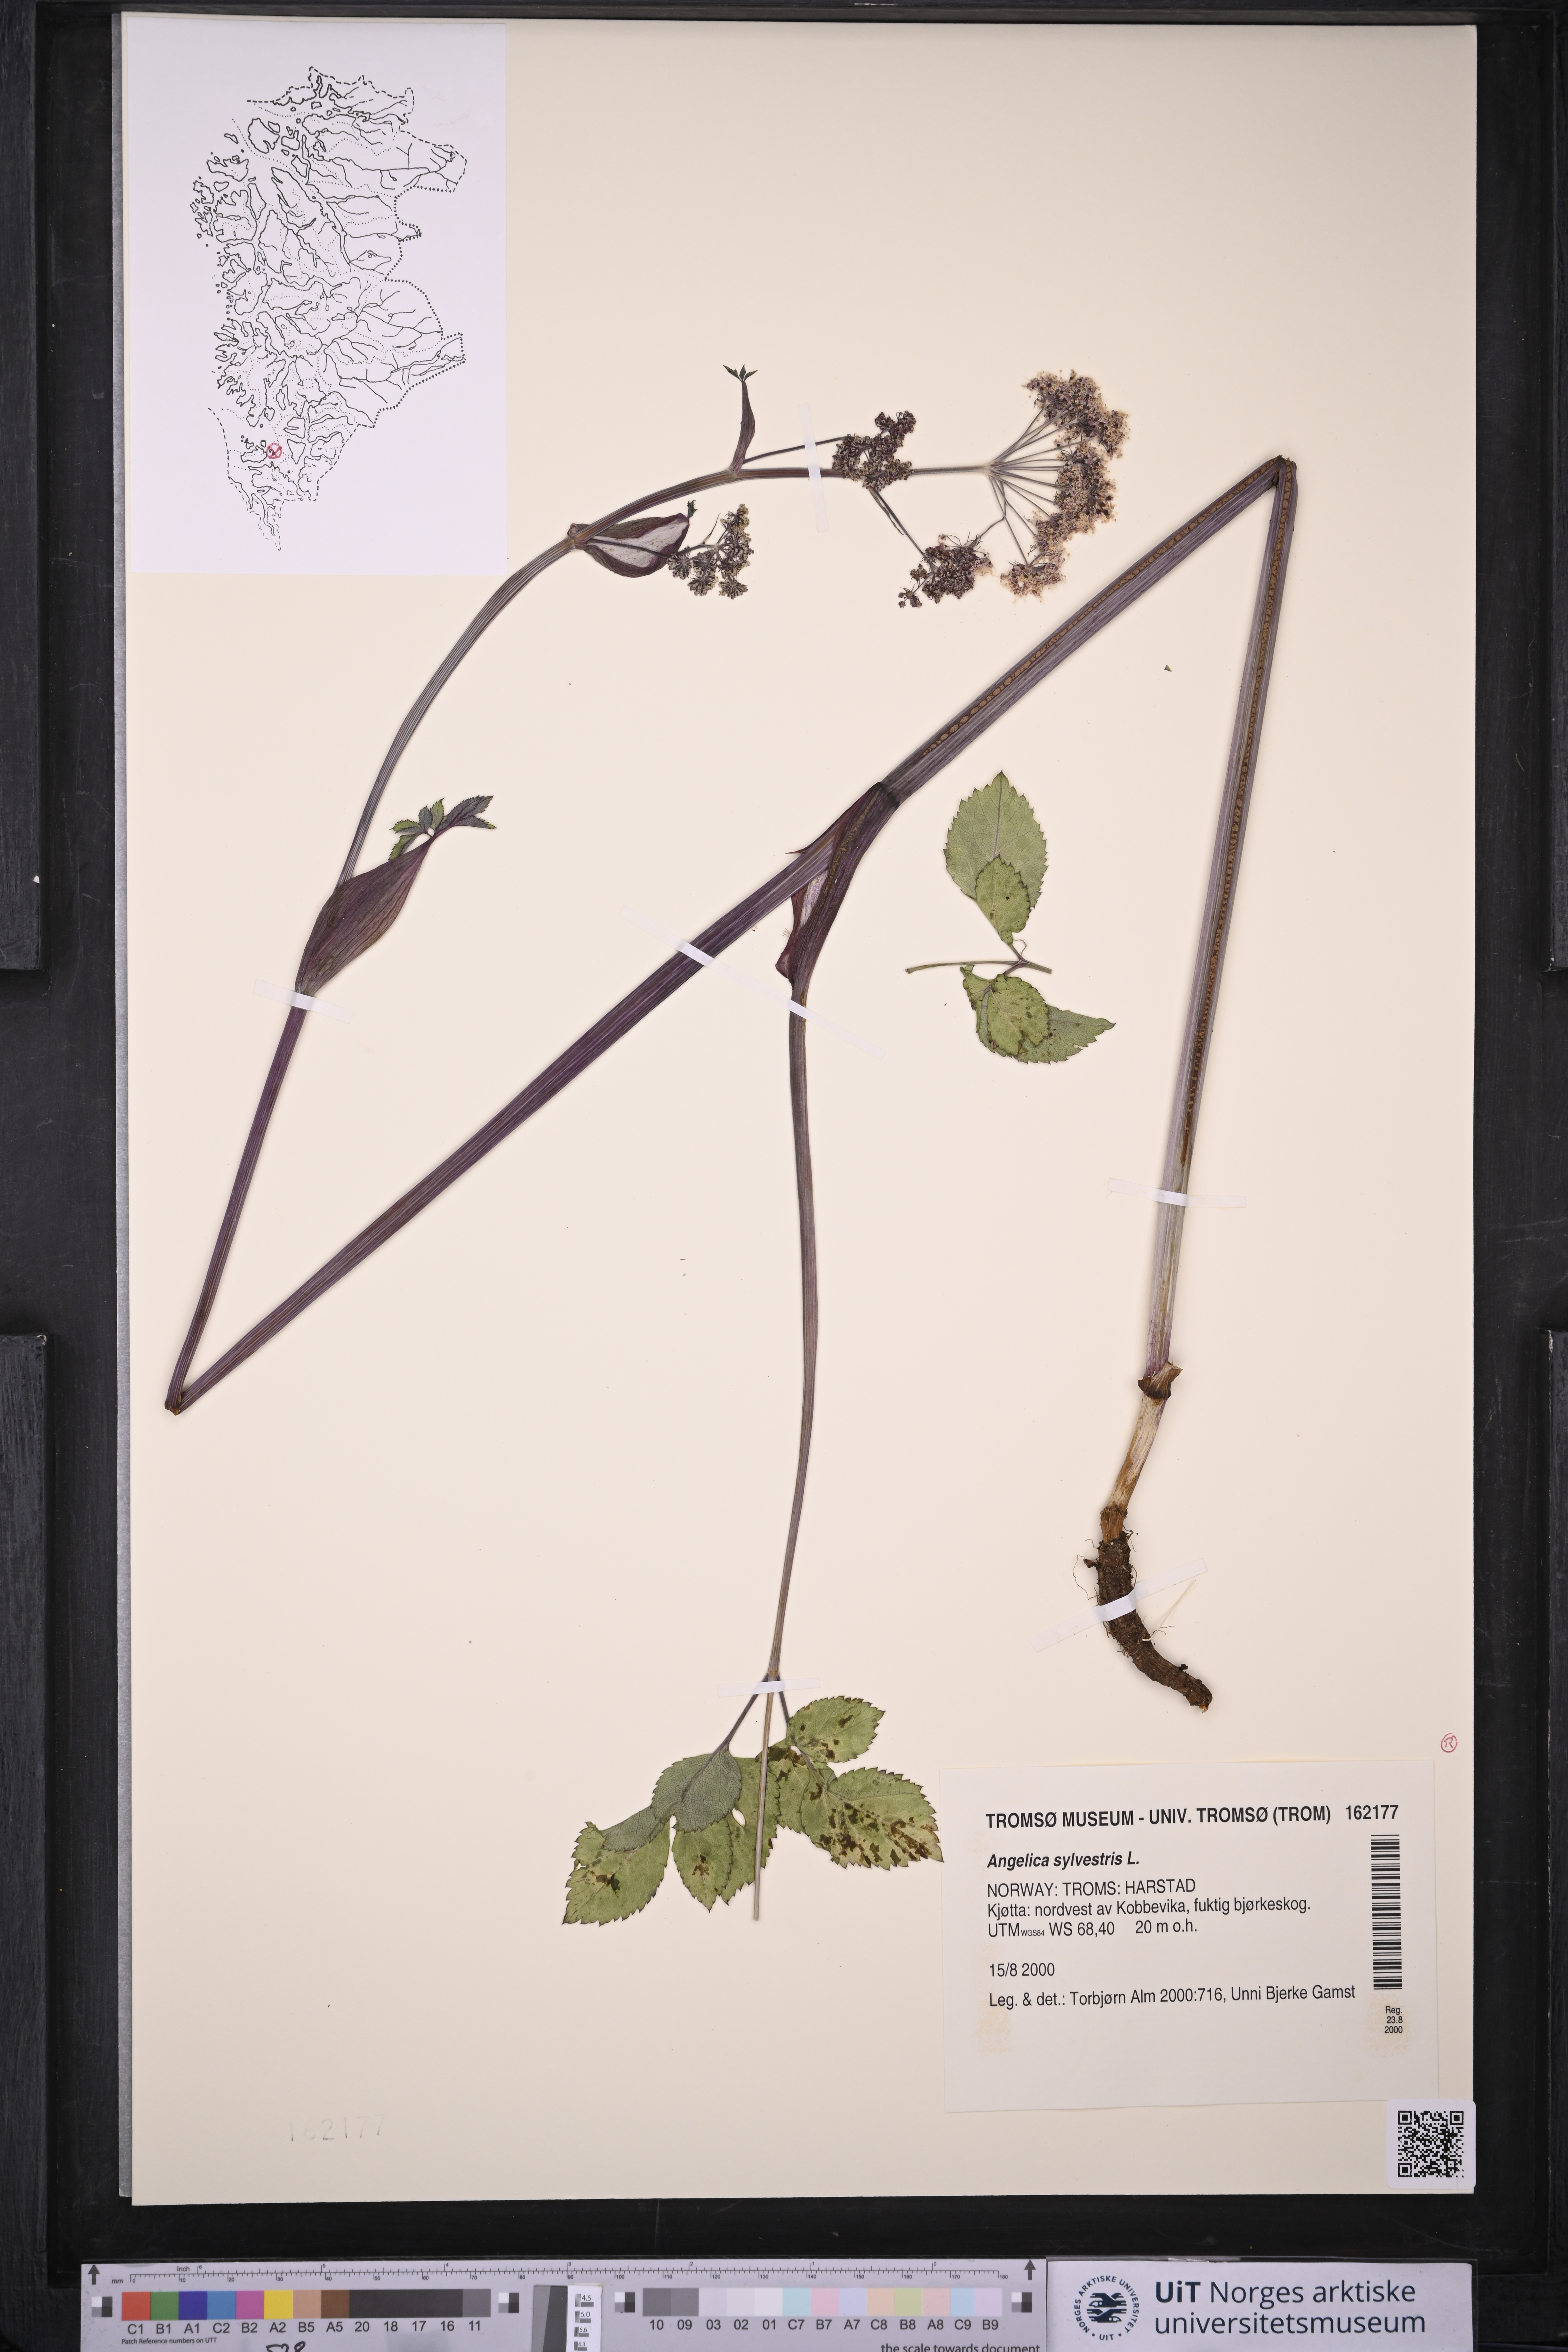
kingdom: Plantae
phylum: Tracheophyta
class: Magnoliopsida
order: Apiales
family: Apiaceae
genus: Angelica
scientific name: Angelica sylvestris
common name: Wild angelica
